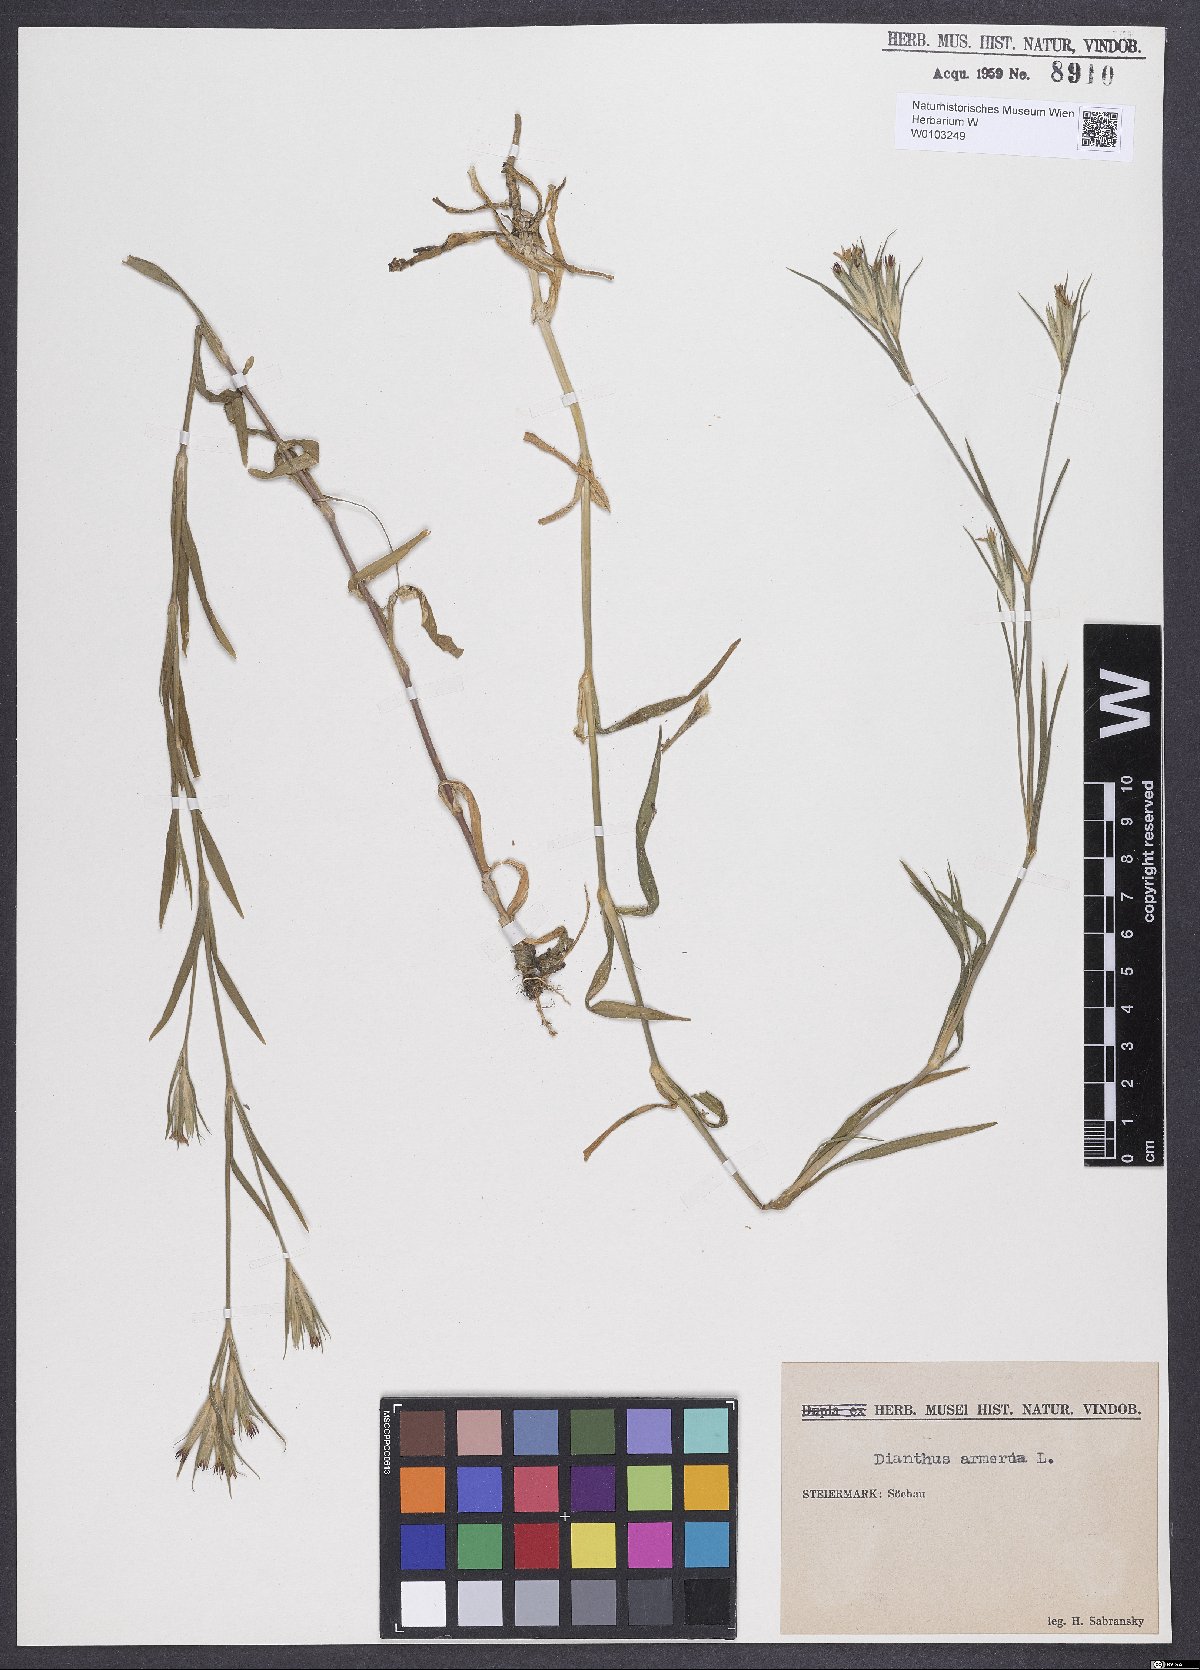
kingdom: Plantae
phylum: Tracheophyta
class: Magnoliopsida
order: Caryophyllales
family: Caryophyllaceae
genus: Dianthus
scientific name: Dianthus armeria
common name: Deptford pink
